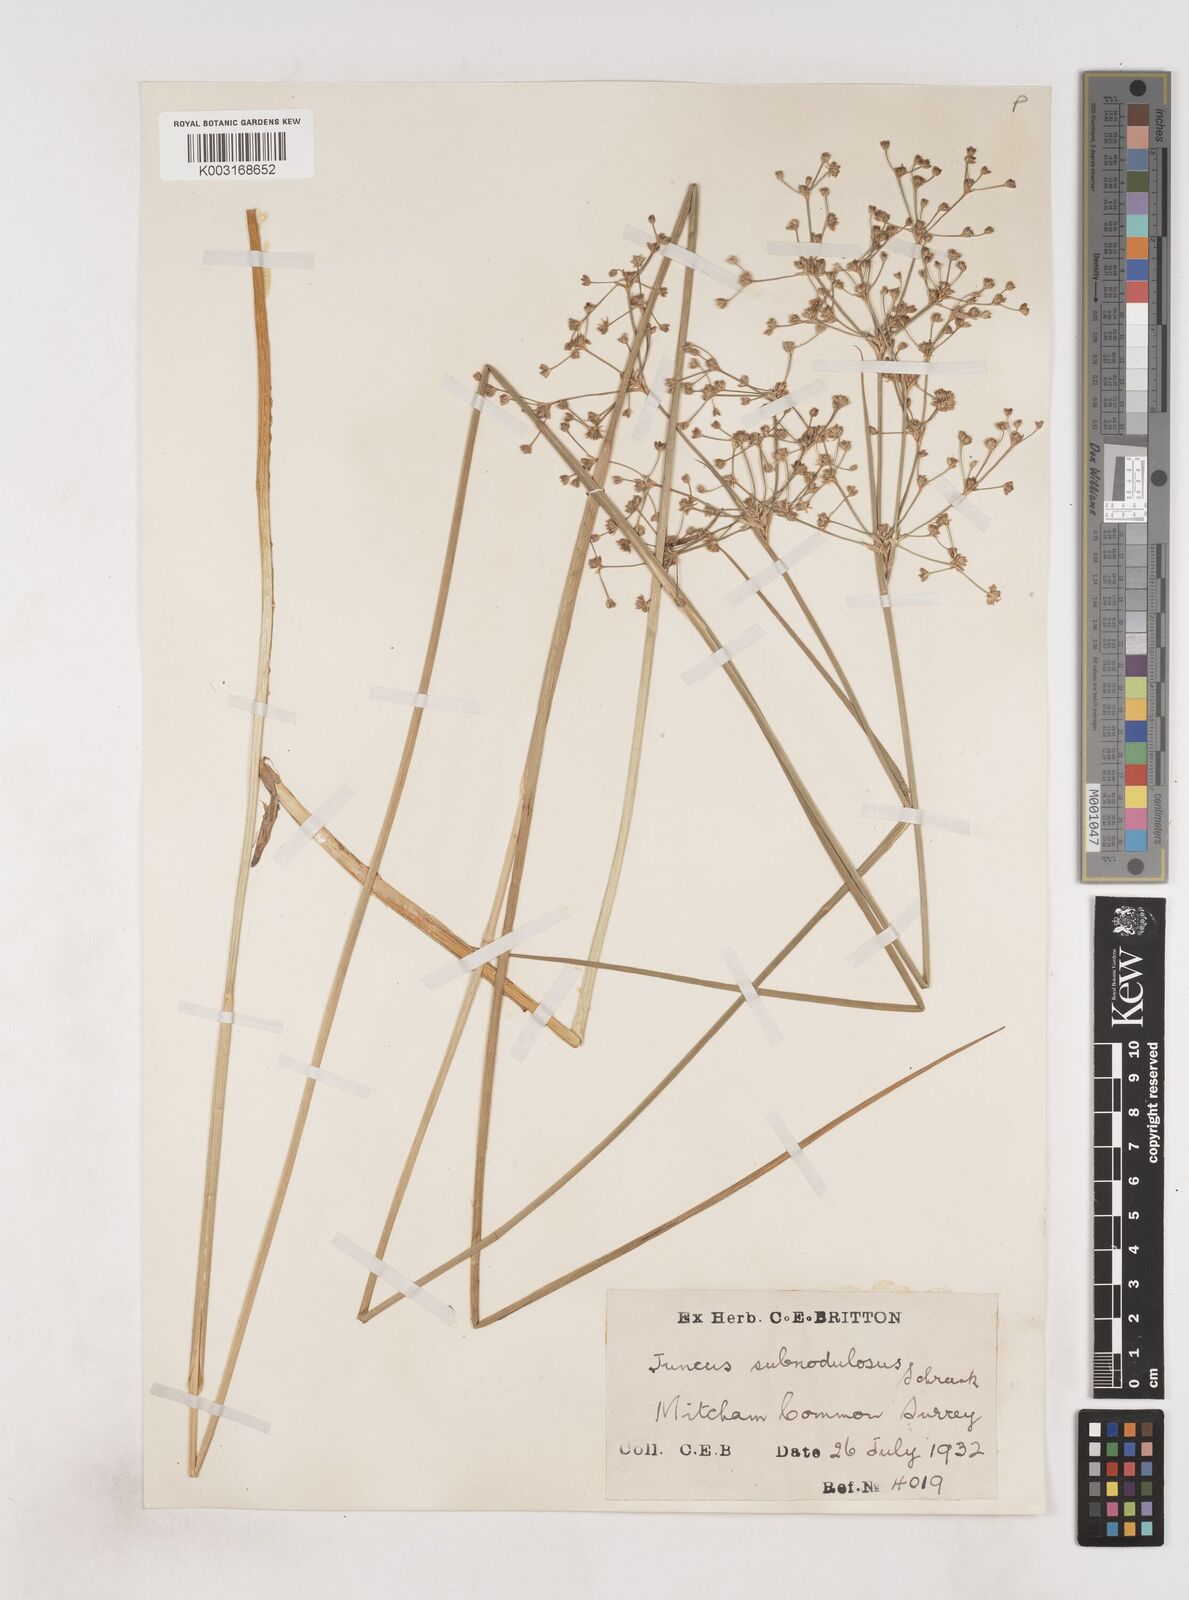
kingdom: Plantae
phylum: Tracheophyta
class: Liliopsida
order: Poales
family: Juncaceae
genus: Juncus
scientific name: Juncus subnodulosus
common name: Blunt-flowered rush
